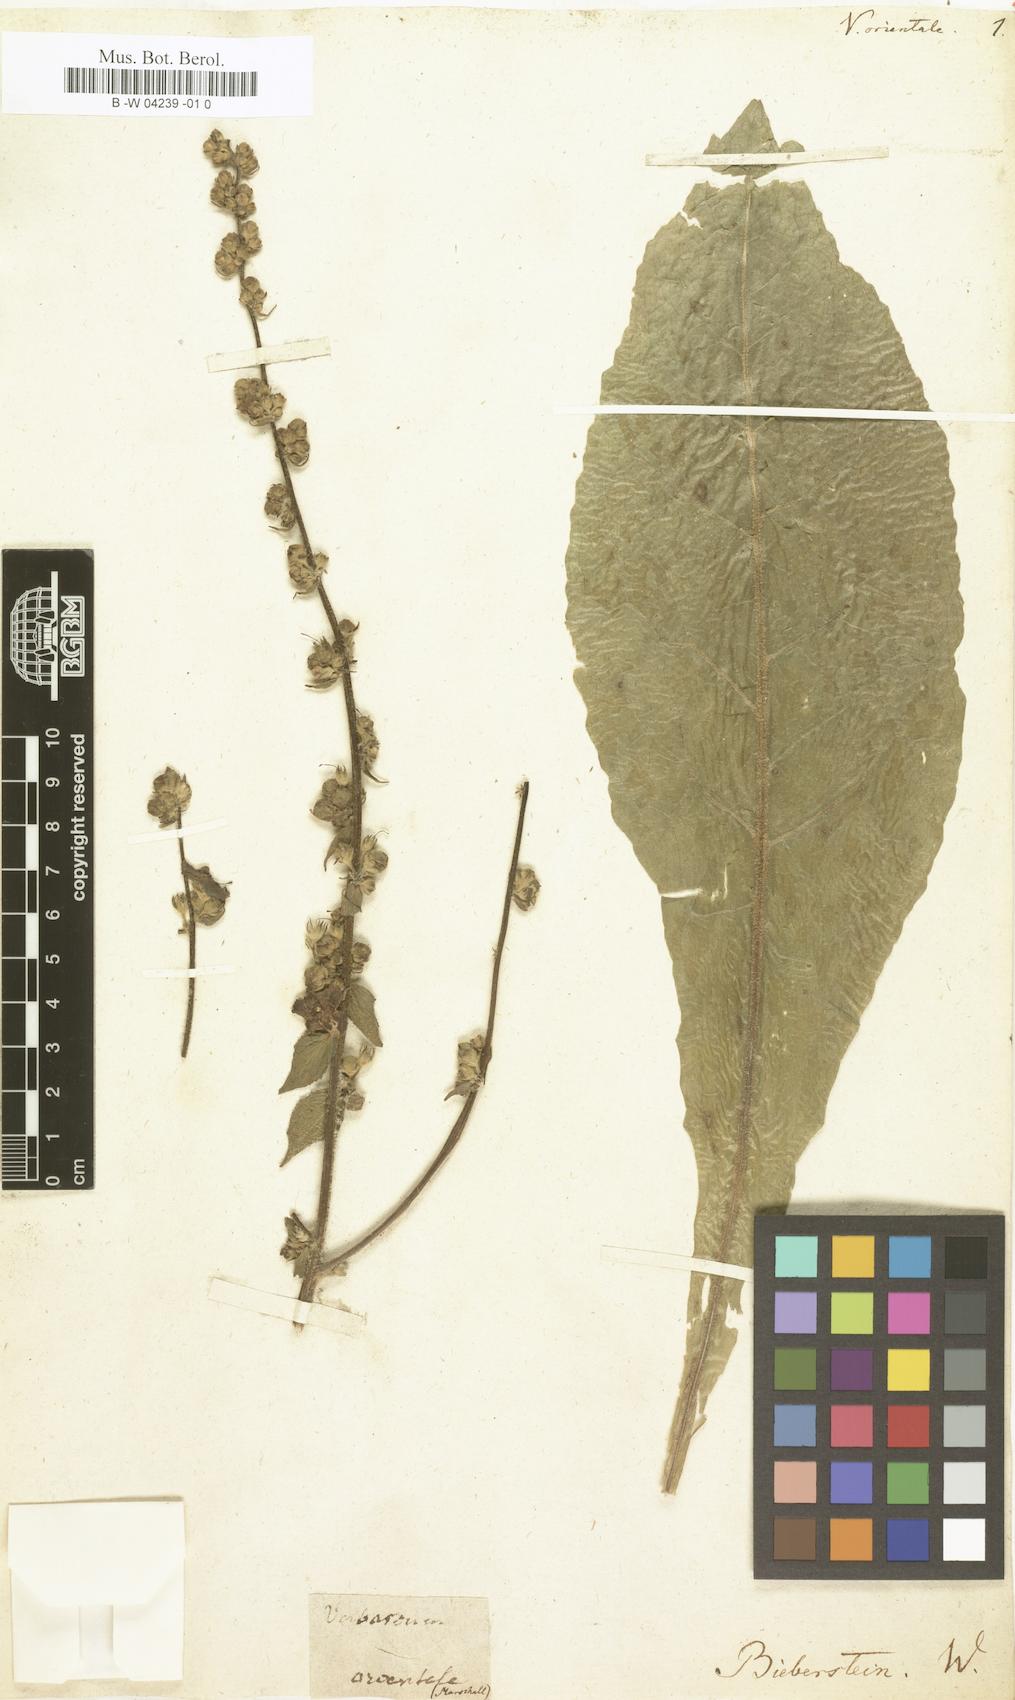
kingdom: Plantae
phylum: Tracheophyta
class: Magnoliopsida
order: Lamiales
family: Scrophulariaceae
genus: Verbascum
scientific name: Verbascum orientale
